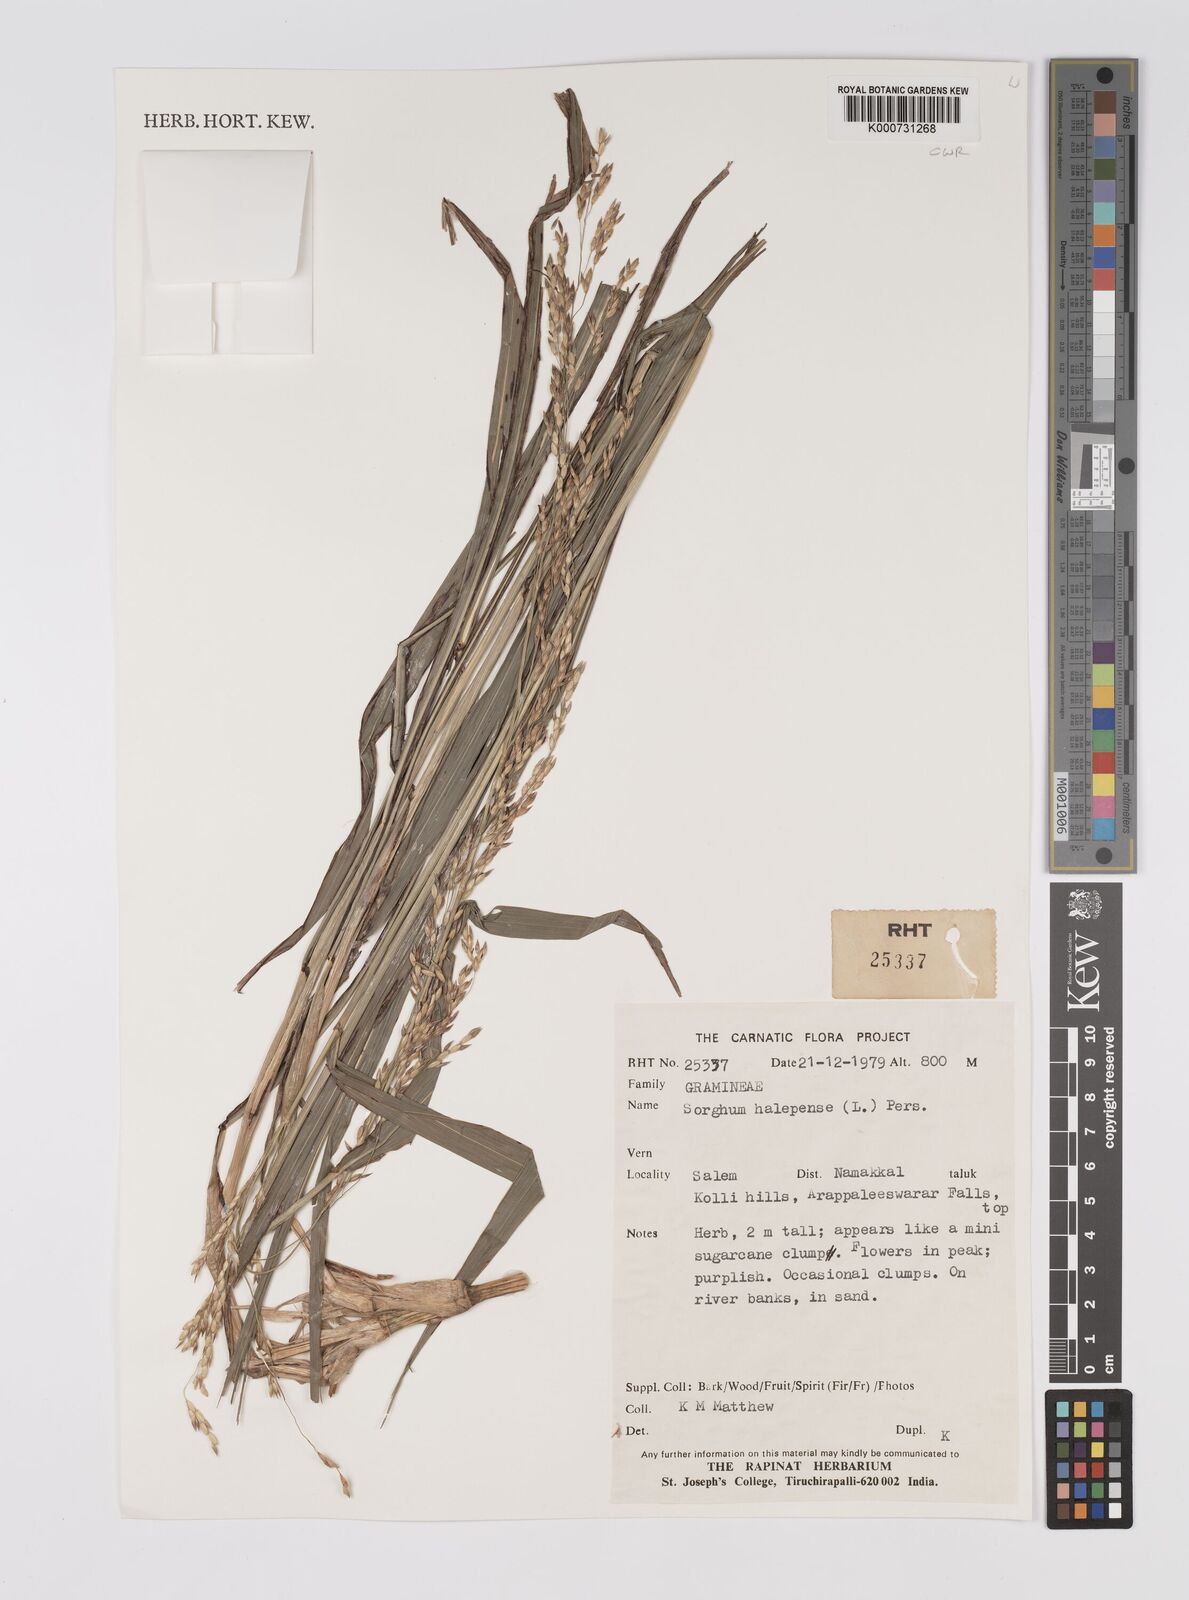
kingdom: Plantae
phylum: Tracheophyta
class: Liliopsida
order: Poales
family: Poaceae
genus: Sorghum
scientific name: Sorghum halepense
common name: Johnson-grass
